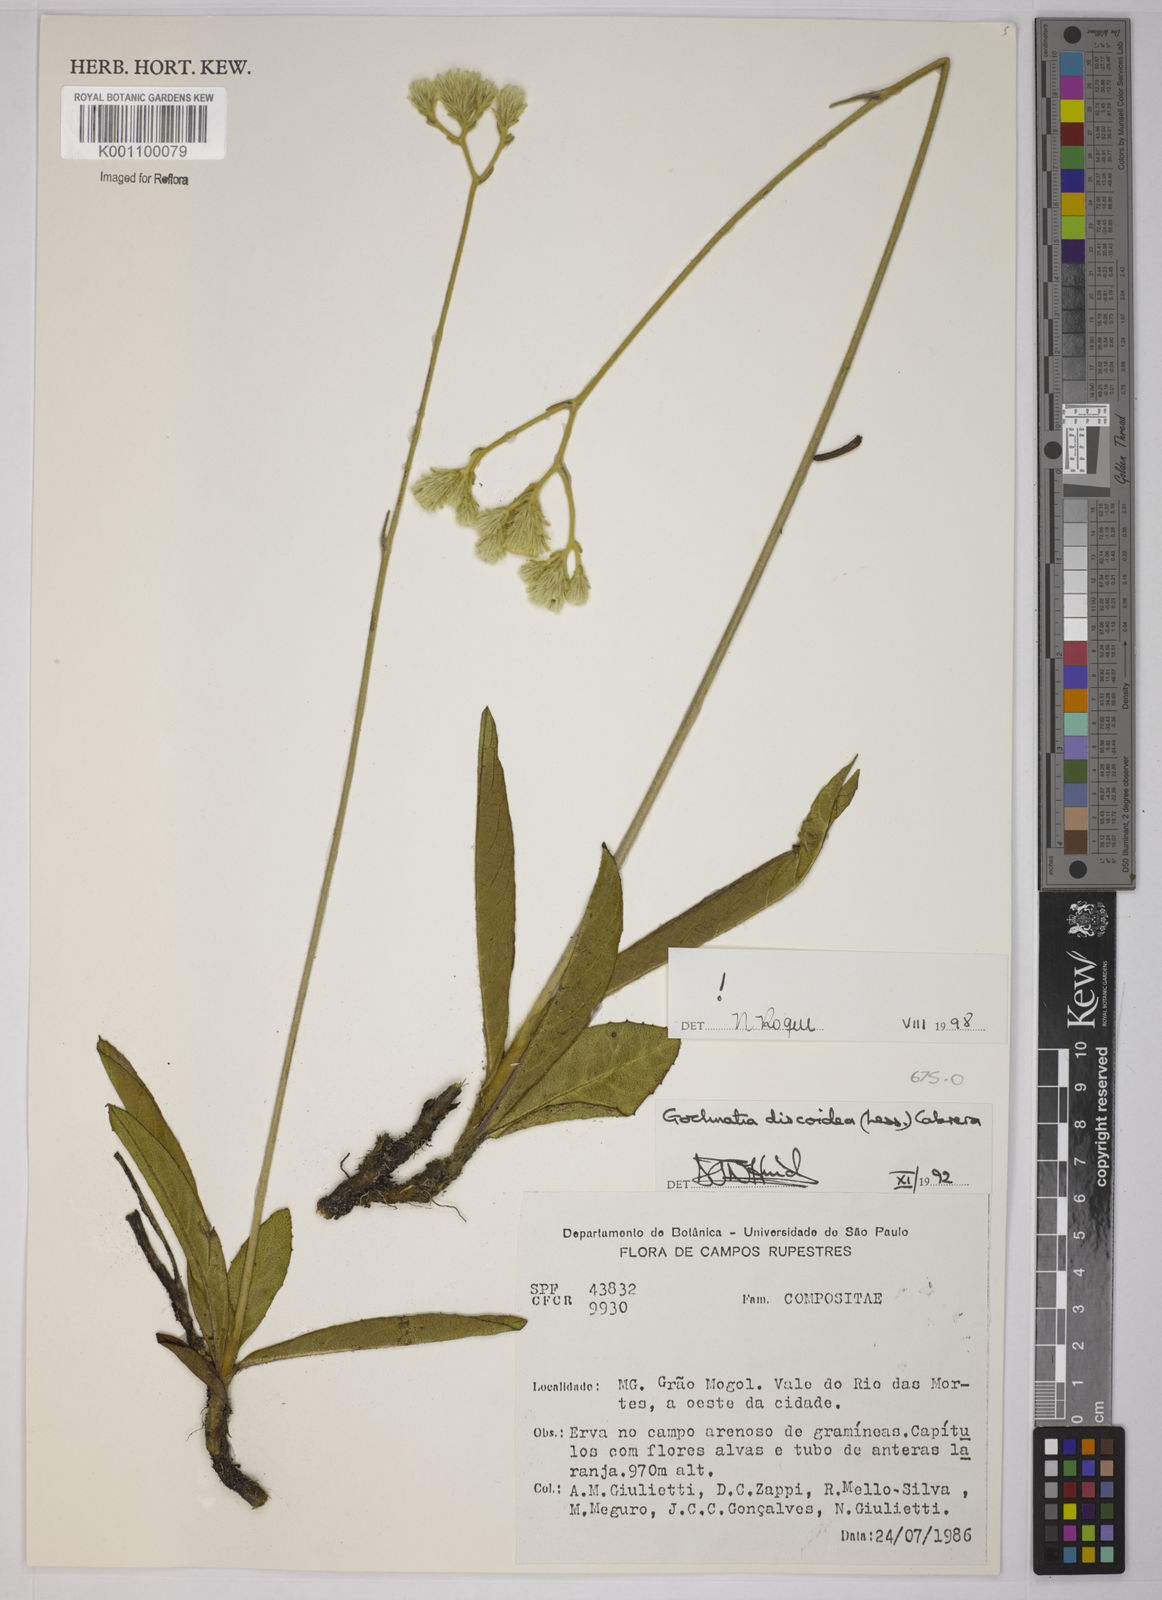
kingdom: Plantae
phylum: Tracheophyta
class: Magnoliopsida
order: Asterales
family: Asteraceae
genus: Richterago
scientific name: Richterago discoidea
